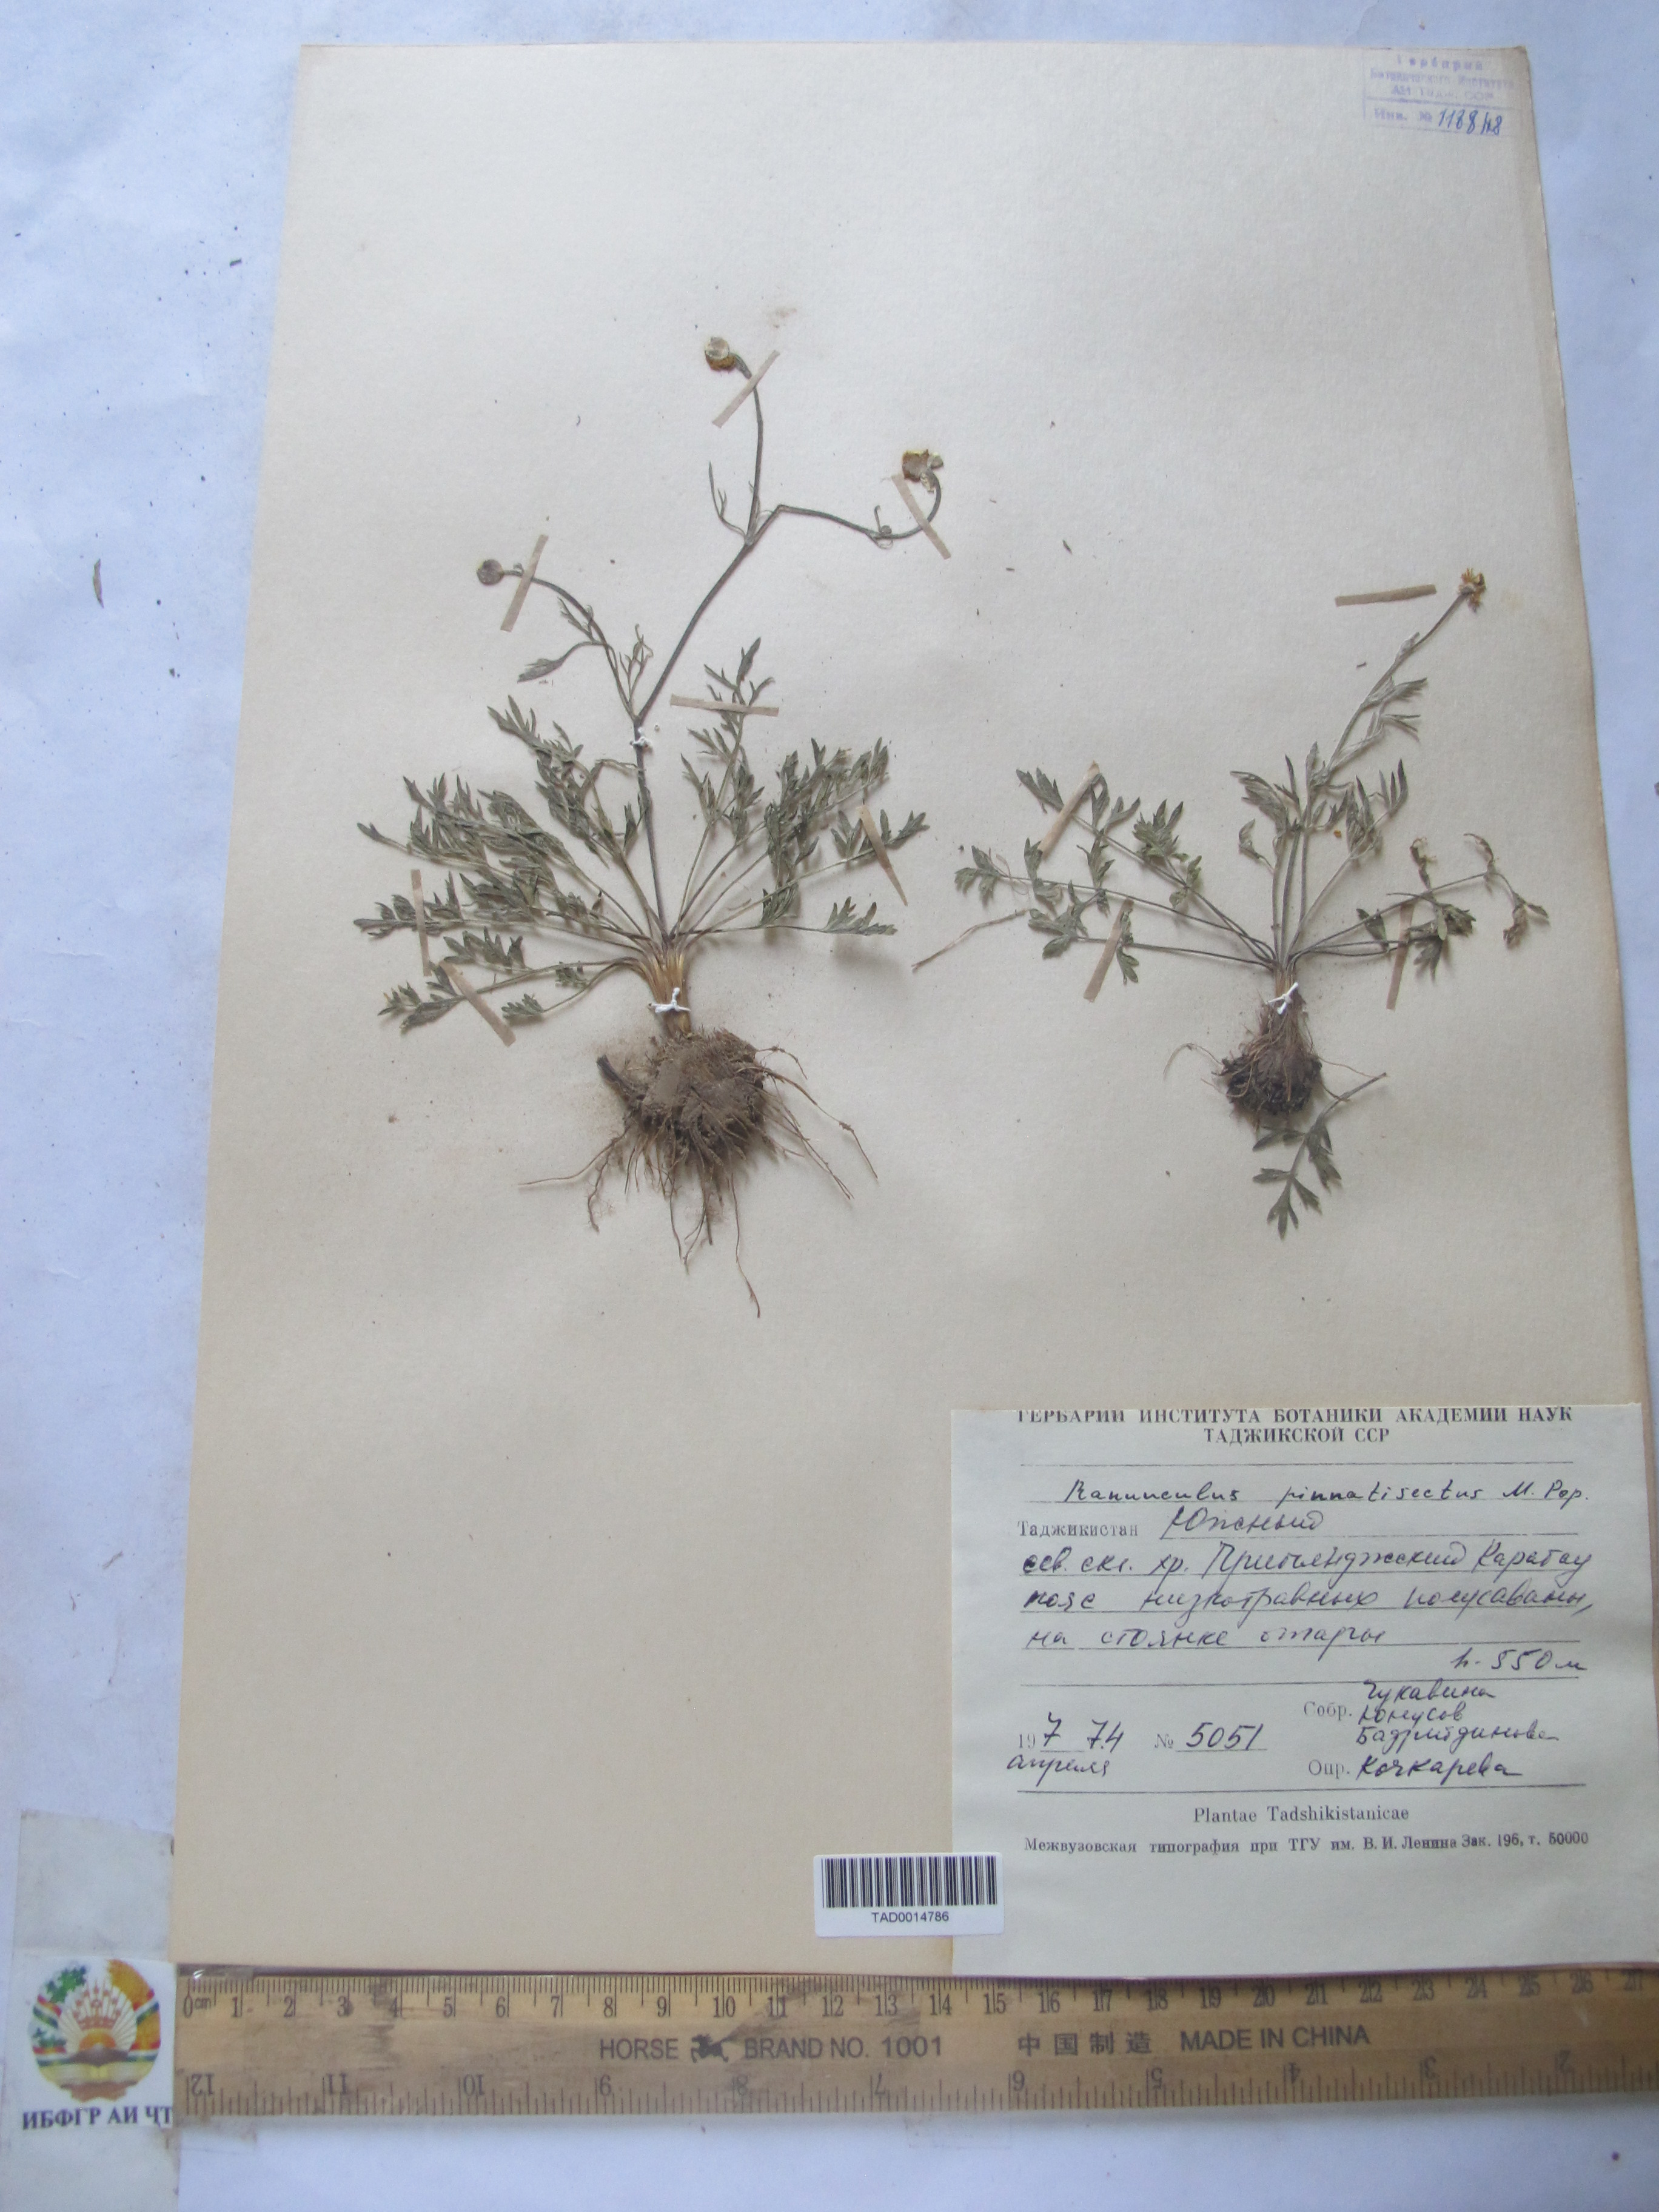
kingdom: Plantae
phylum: Tracheophyta
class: Magnoliopsida
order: Ranunculales
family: Ranunculaceae
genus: Ranunculus
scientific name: Ranunculus pinnatisectus
